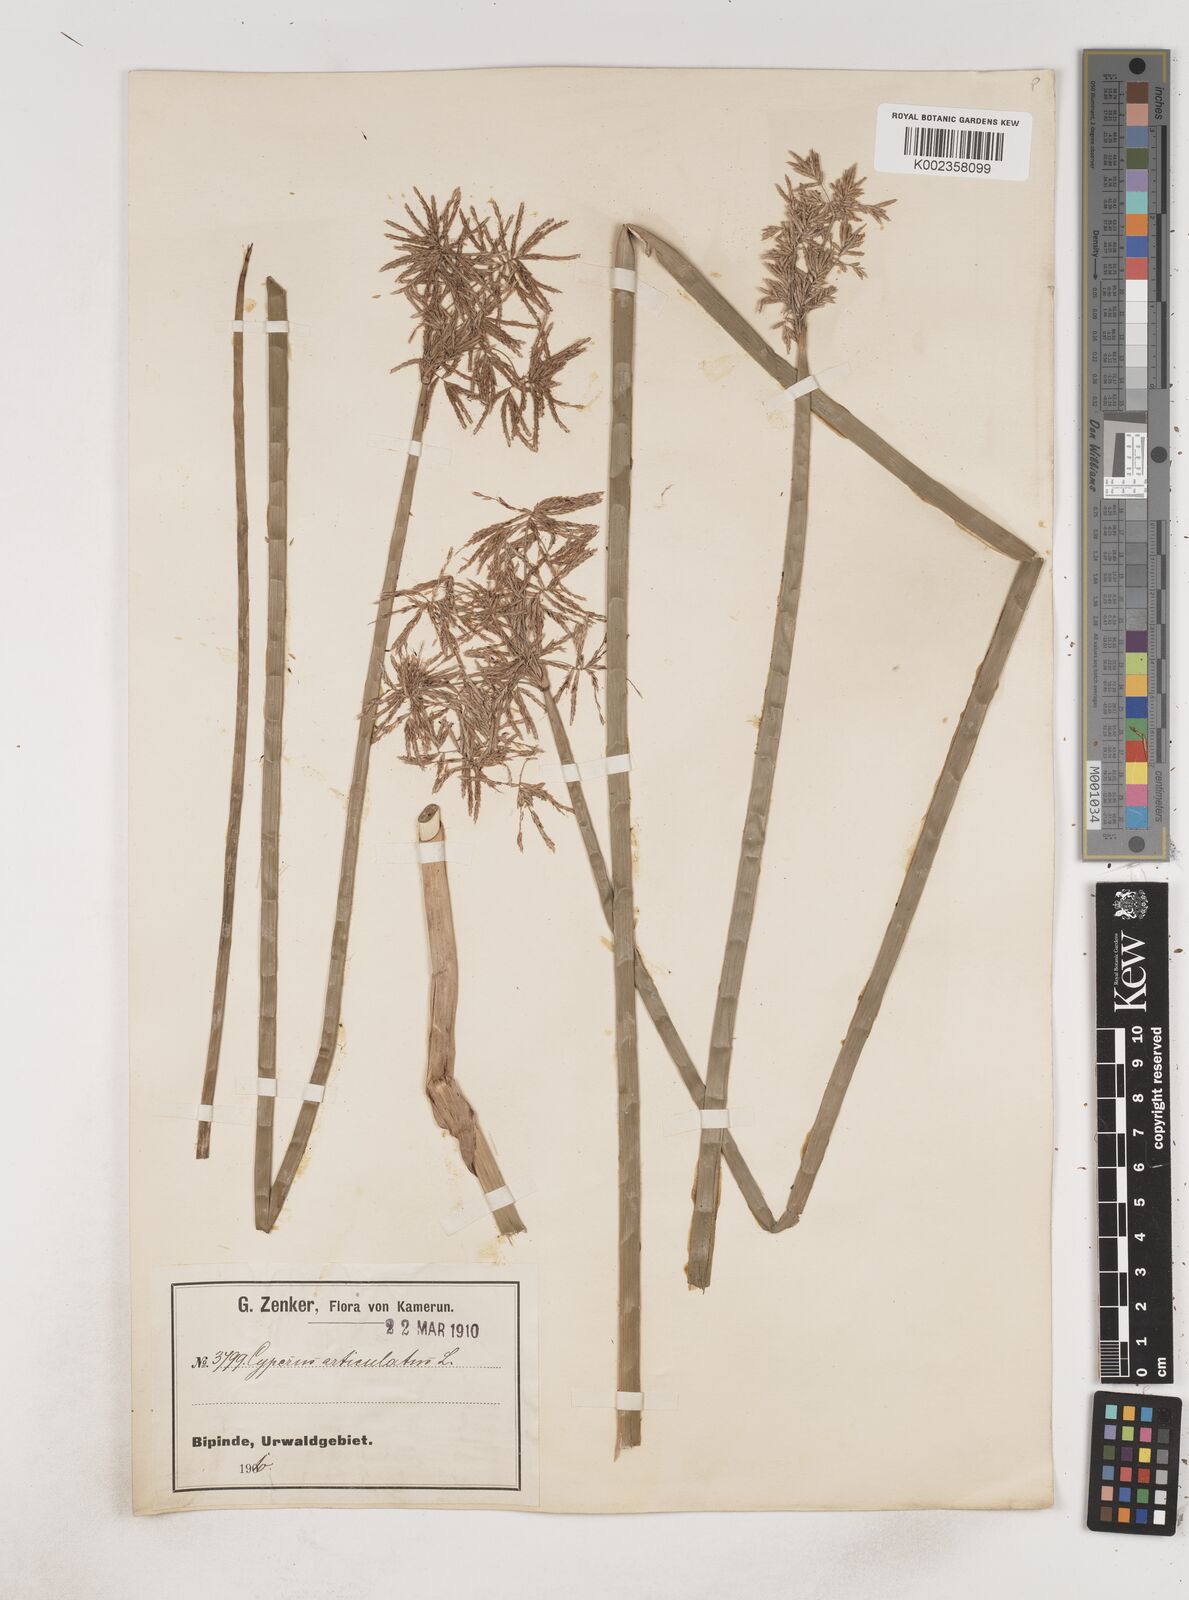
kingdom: Plantae
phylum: Tracheophyta
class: Liliopsida
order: Poales
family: Cyperaceae
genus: Cyperus
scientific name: Cyperus articulatus
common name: Jointed flatsedge
